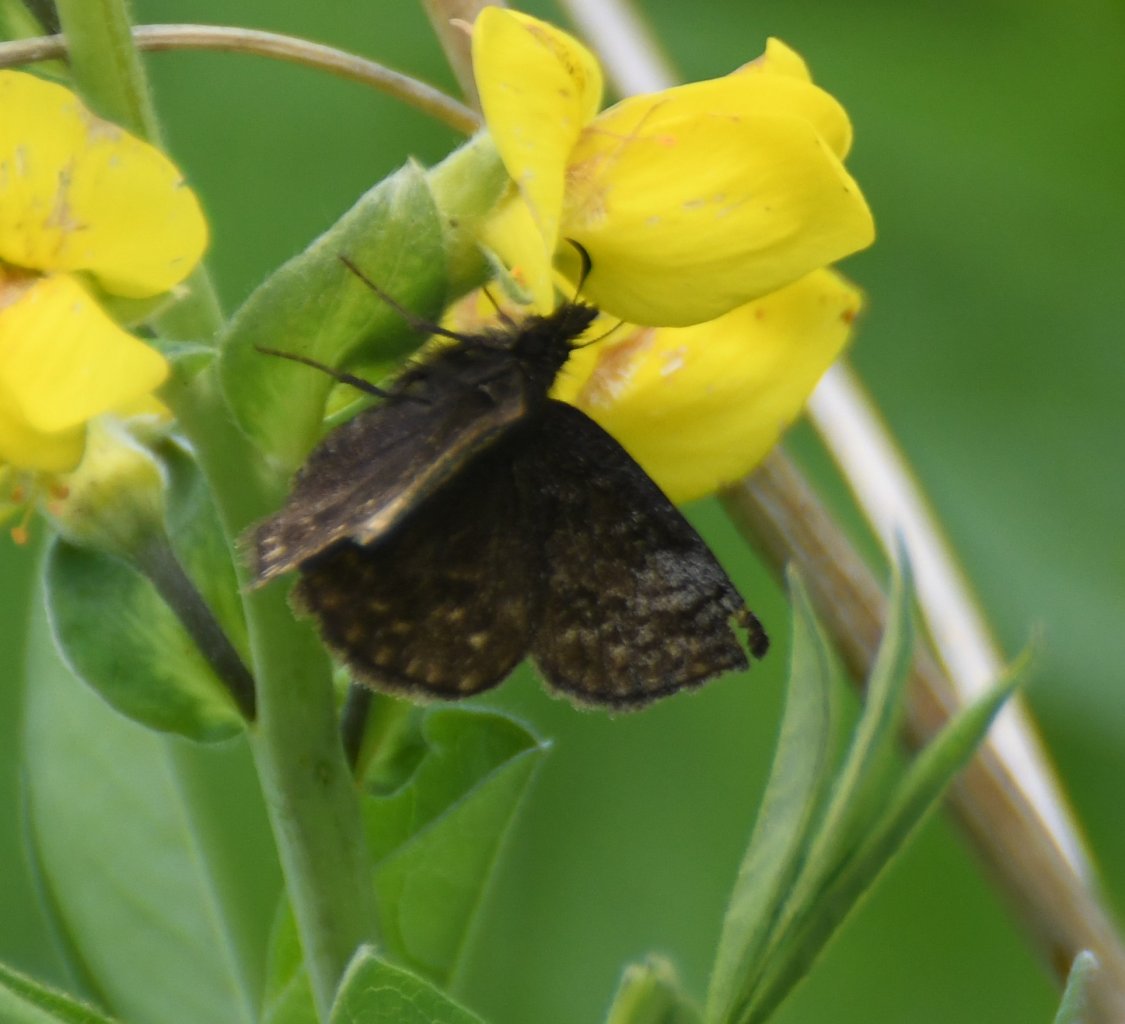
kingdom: Animalia
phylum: Arthropoda
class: Insecta
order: Lepidoptera
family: Hesperiidae
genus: Erynnis
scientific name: Erynnis icelus
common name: Dreamy Duskywing
